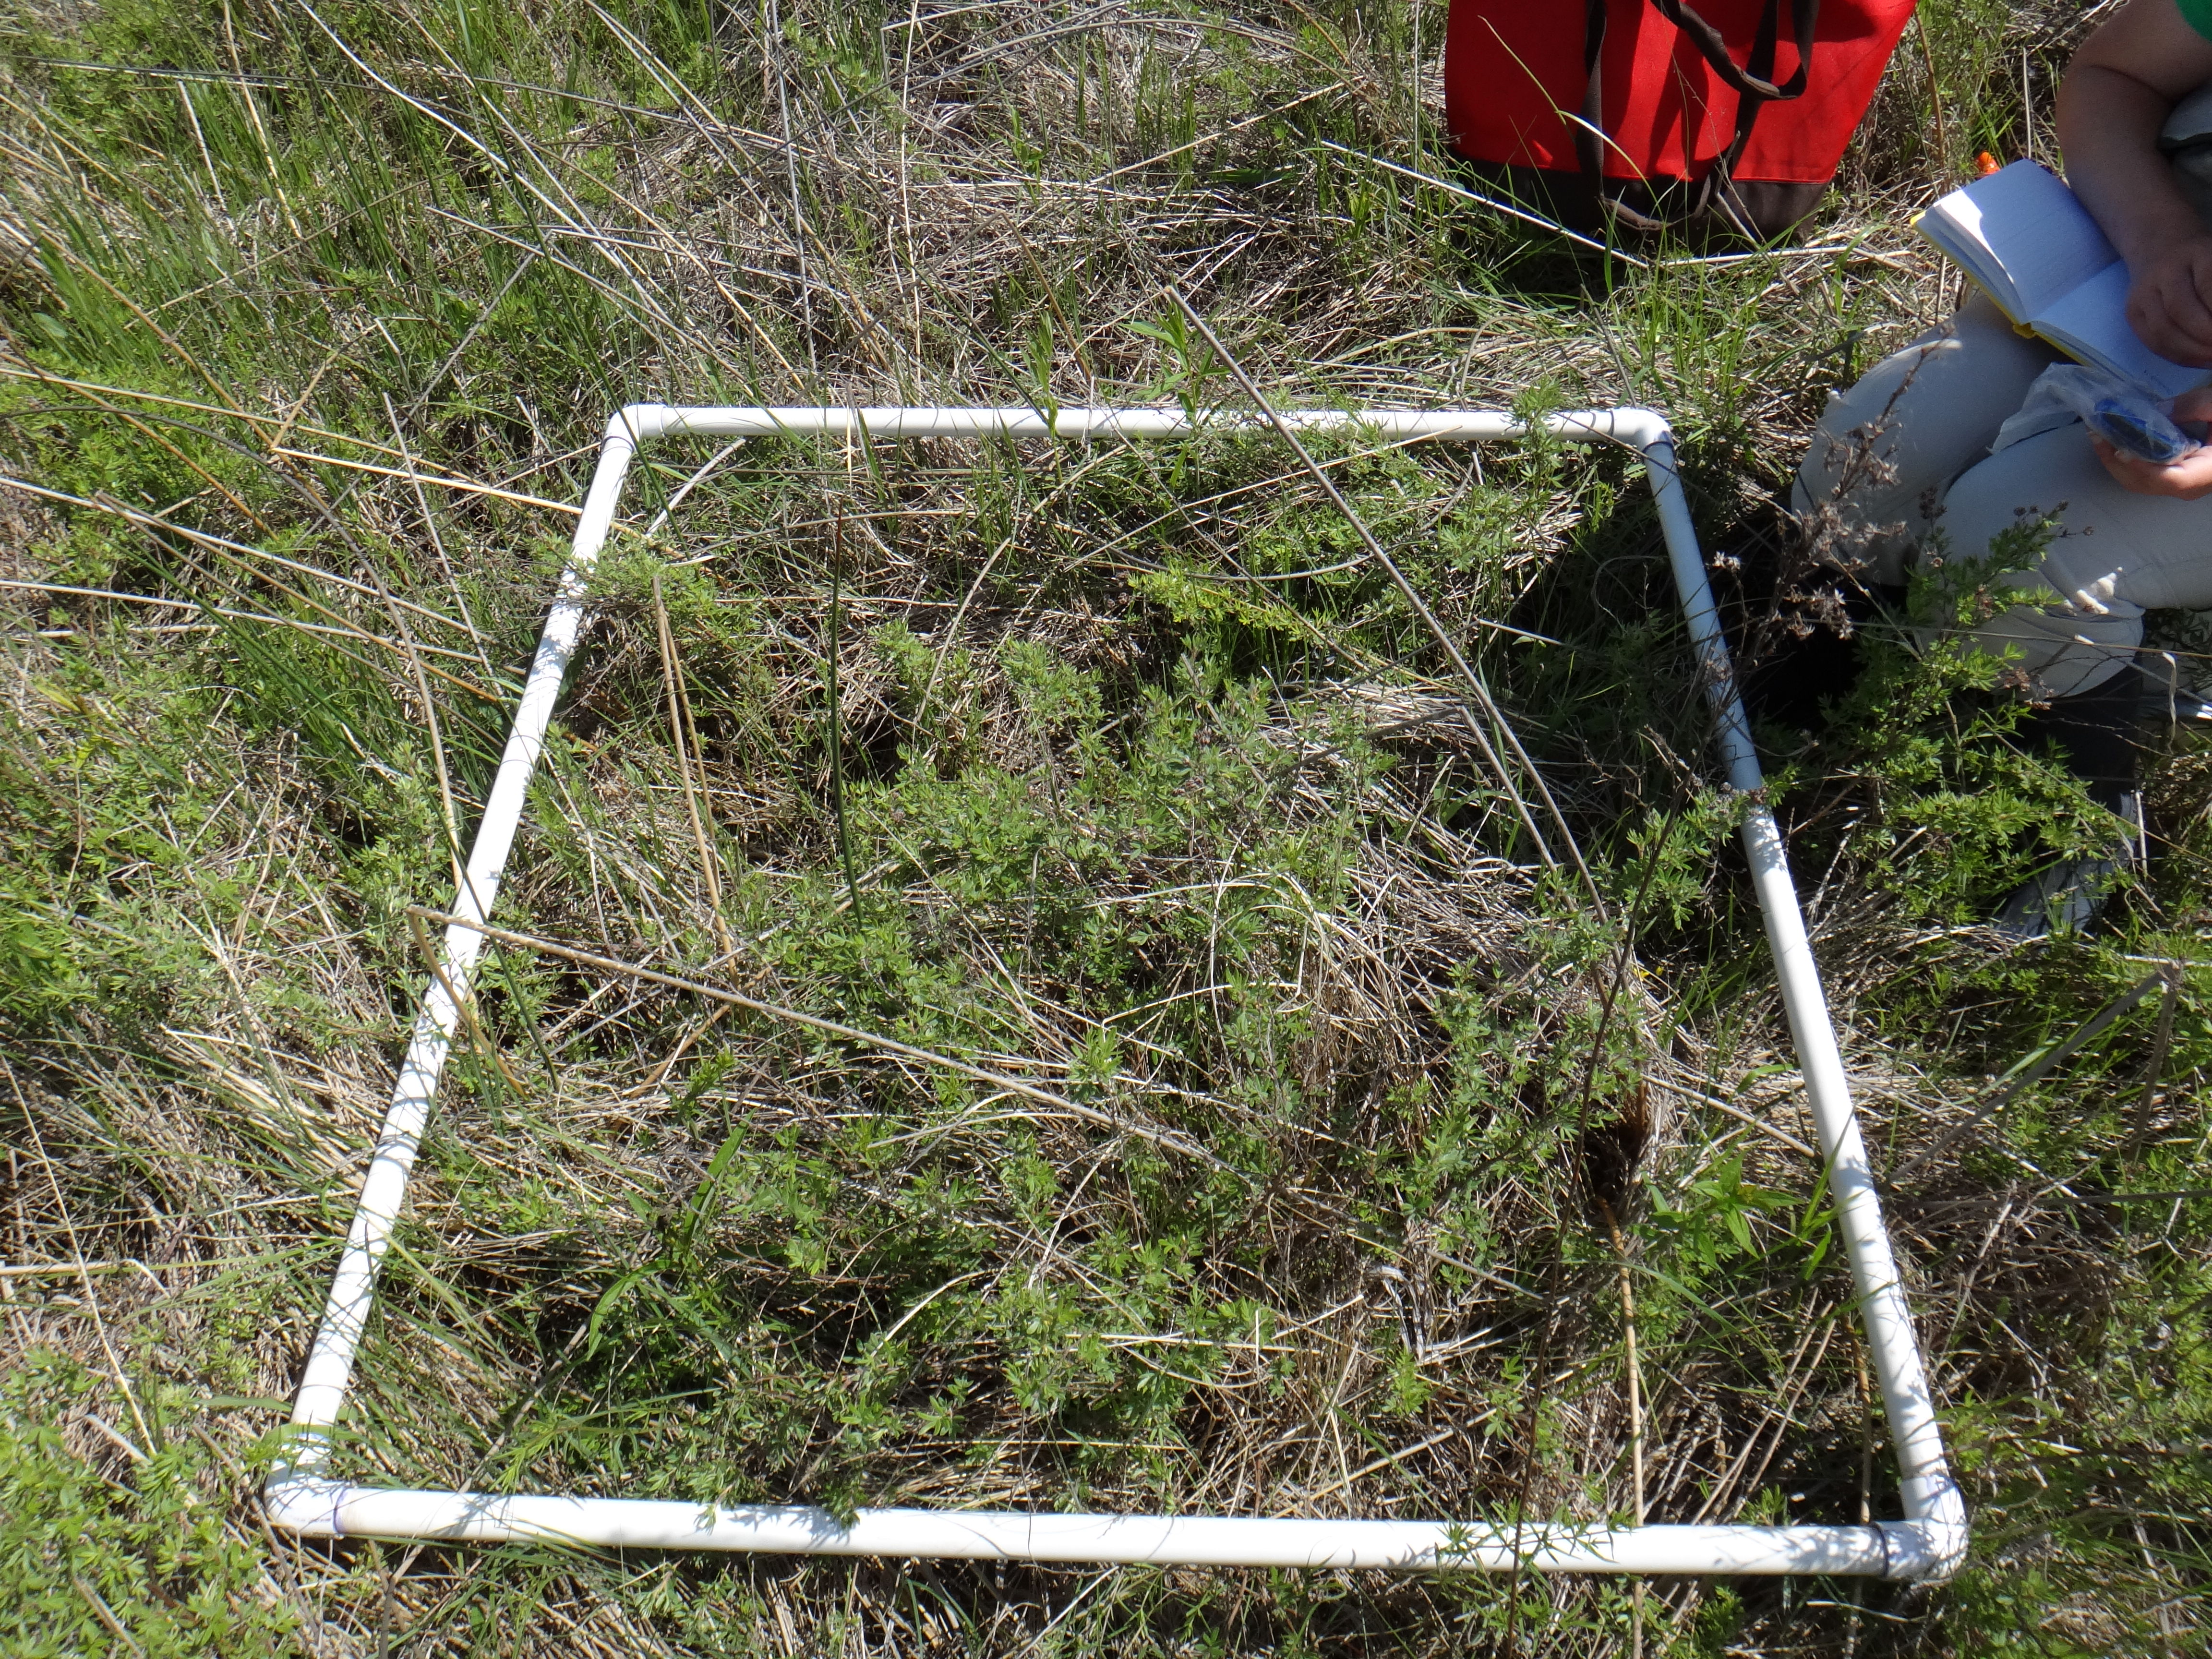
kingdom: Plantae
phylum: Tracheophyta
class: Liliopsida
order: Poales
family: Cyperaceae
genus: Schoenoplectus
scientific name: Schoenoplectus tabernaemontani
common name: Grey club-rush
